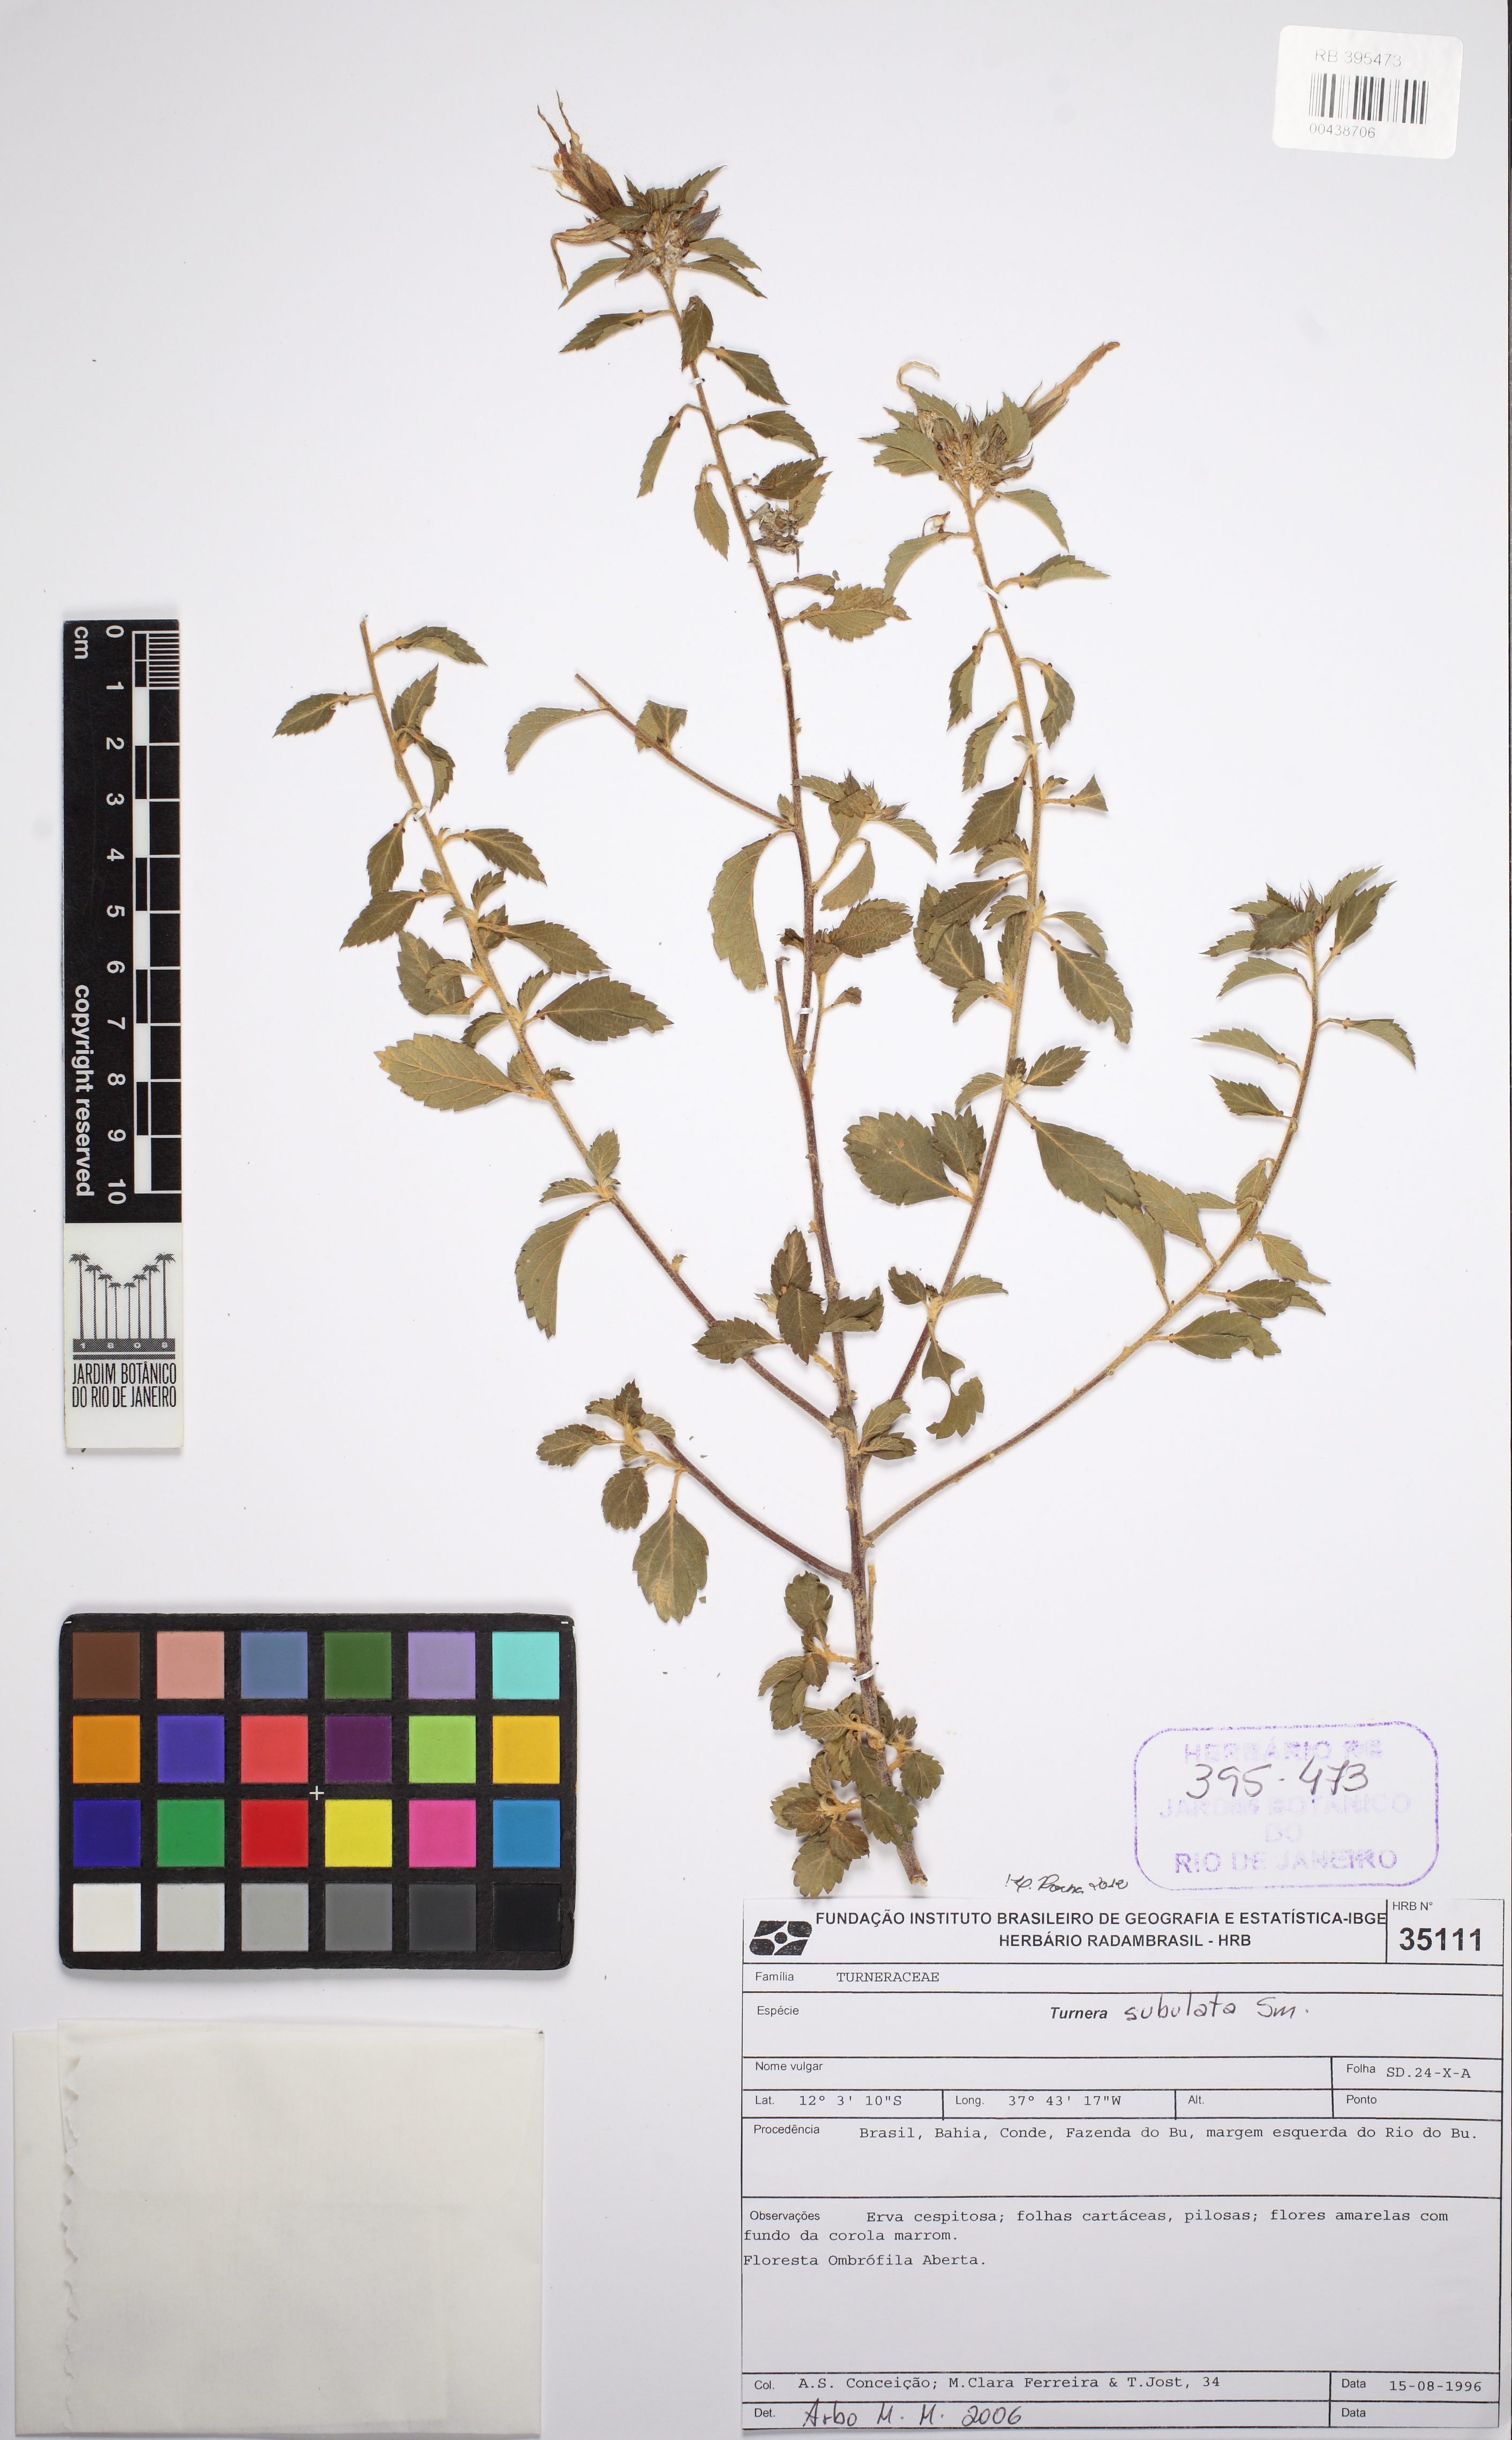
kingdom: Plantae
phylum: Tracheophyta
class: Magnoliopsida
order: Malpighiales
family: Turneraceae
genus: Turnera
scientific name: Turnera subulata
